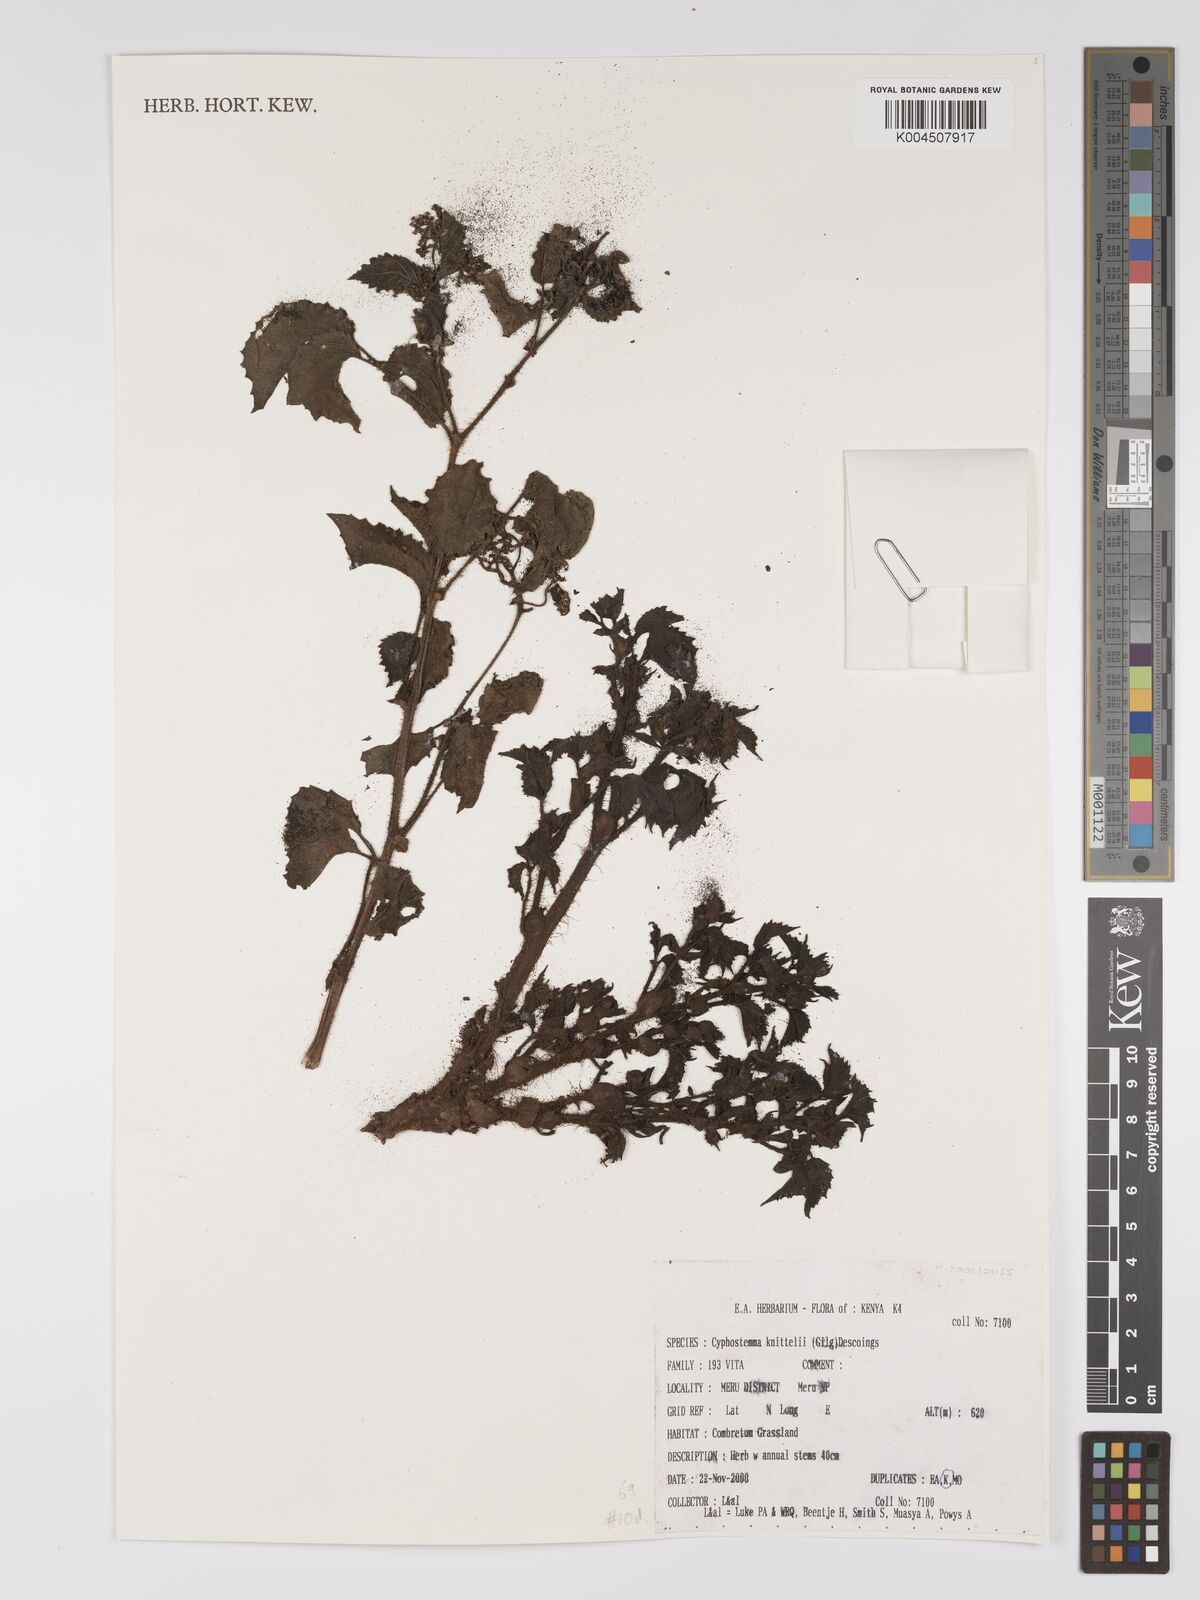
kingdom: Plantae
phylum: Tracheophyta
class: Magnoliopsida
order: Vitales
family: Vitaceae
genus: Cyphostemma
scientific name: Cyphostemma knittelii
